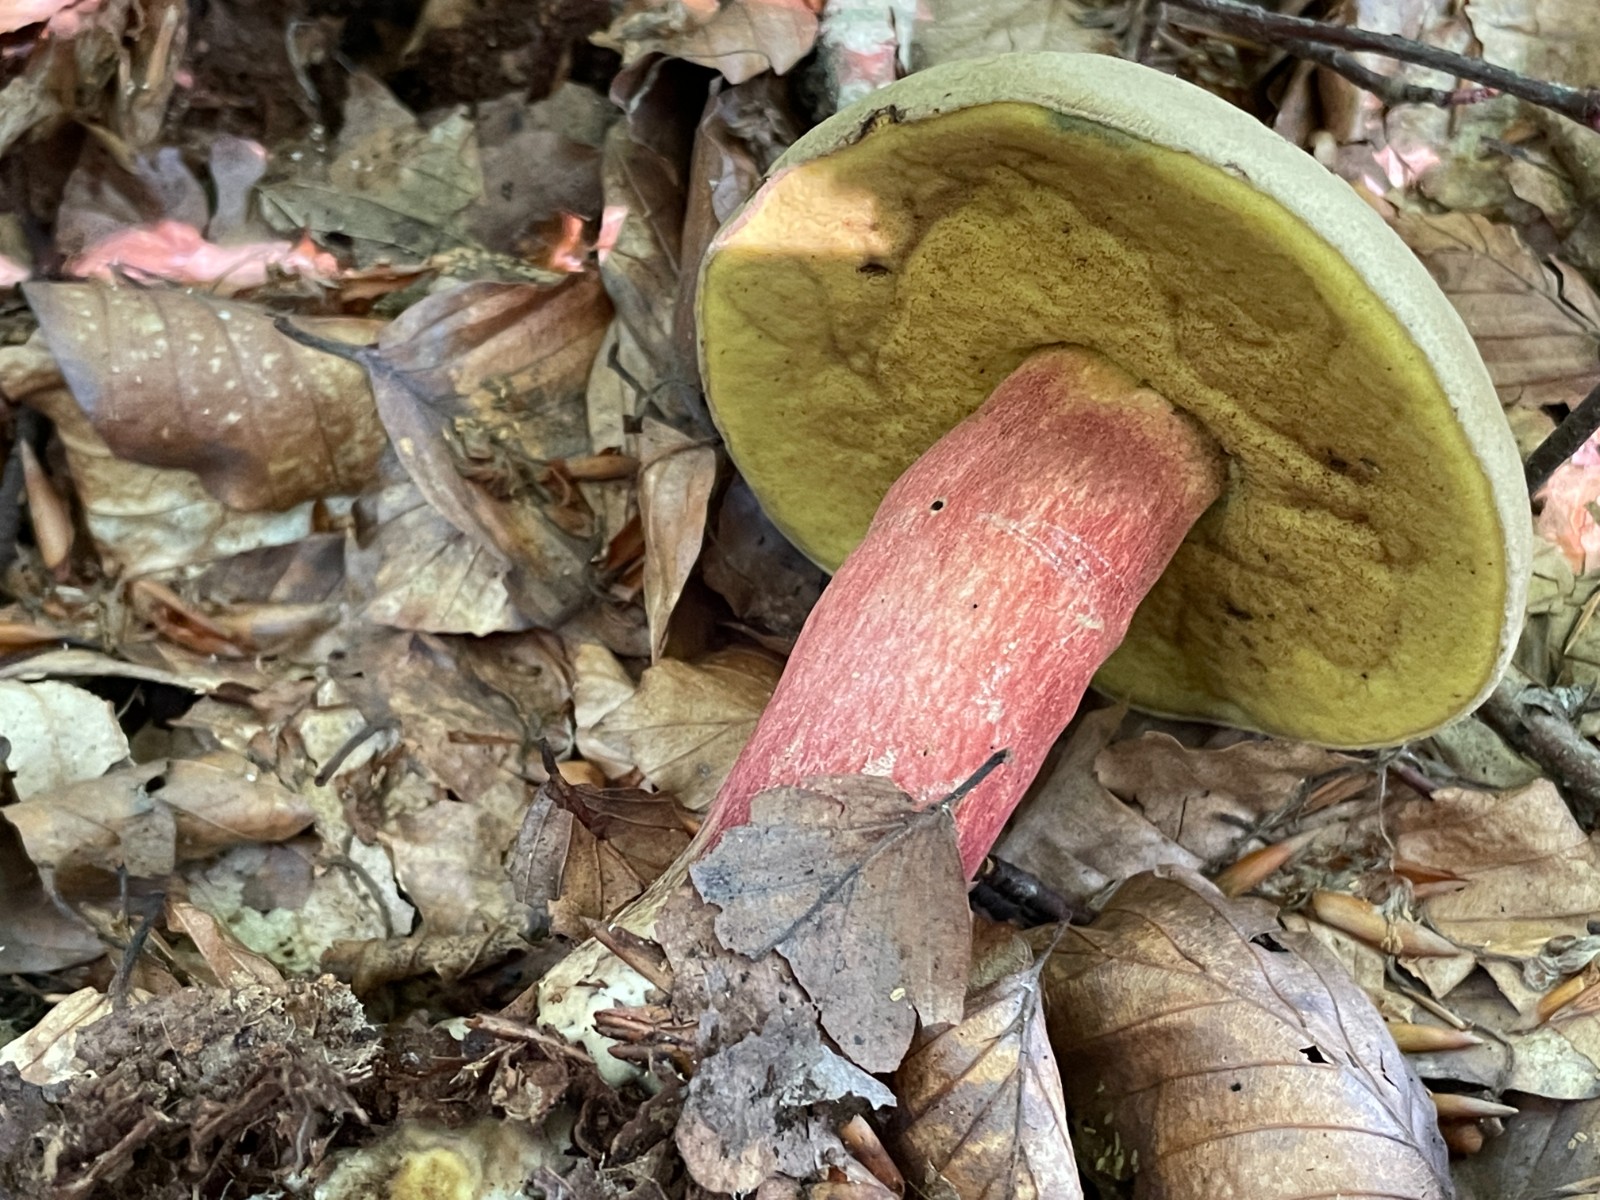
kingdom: Fungi
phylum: Basidiomycota
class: Agaricomycetes
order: Boletales
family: Boletaceae
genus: Caloboletus
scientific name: Caloboletus calopus
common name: skønfodet rørhat
